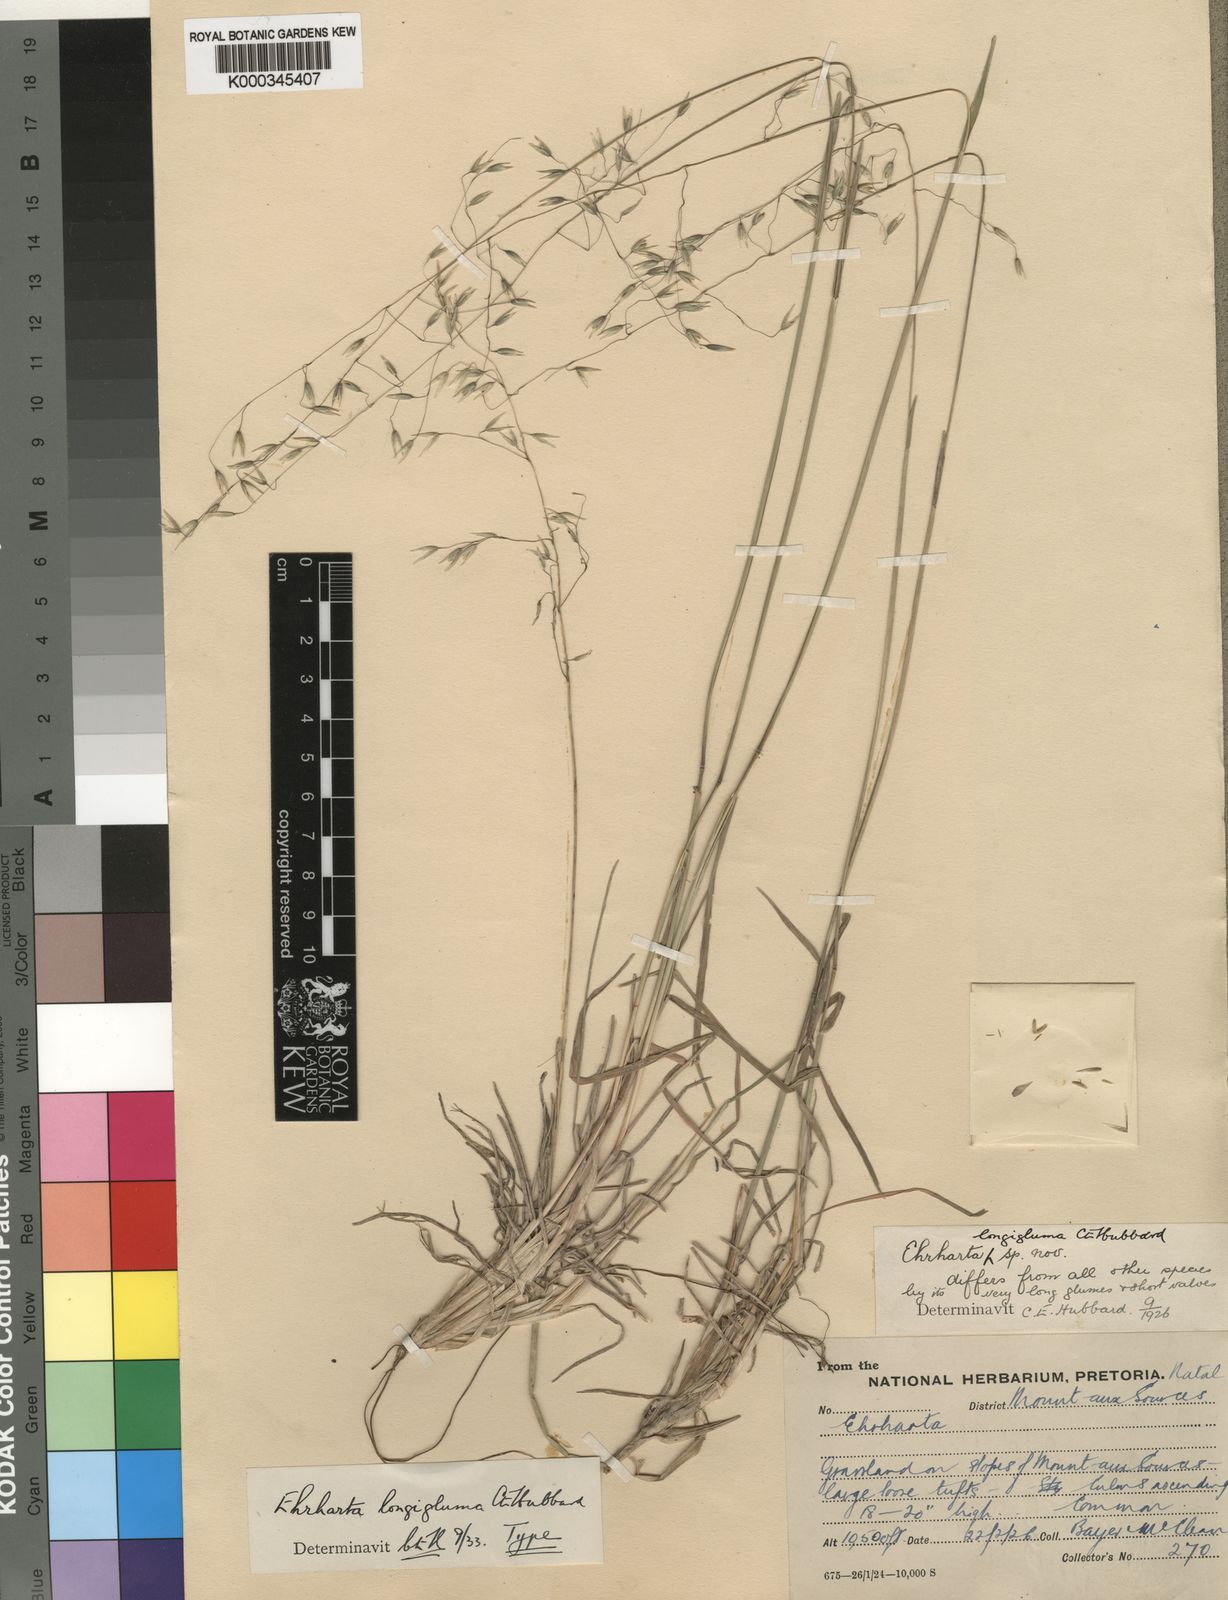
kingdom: Plantae
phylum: Tracheophyta
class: Liliopsida
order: Poales
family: Poaceae
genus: Ehrharta
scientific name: Ehrharta longigluma
